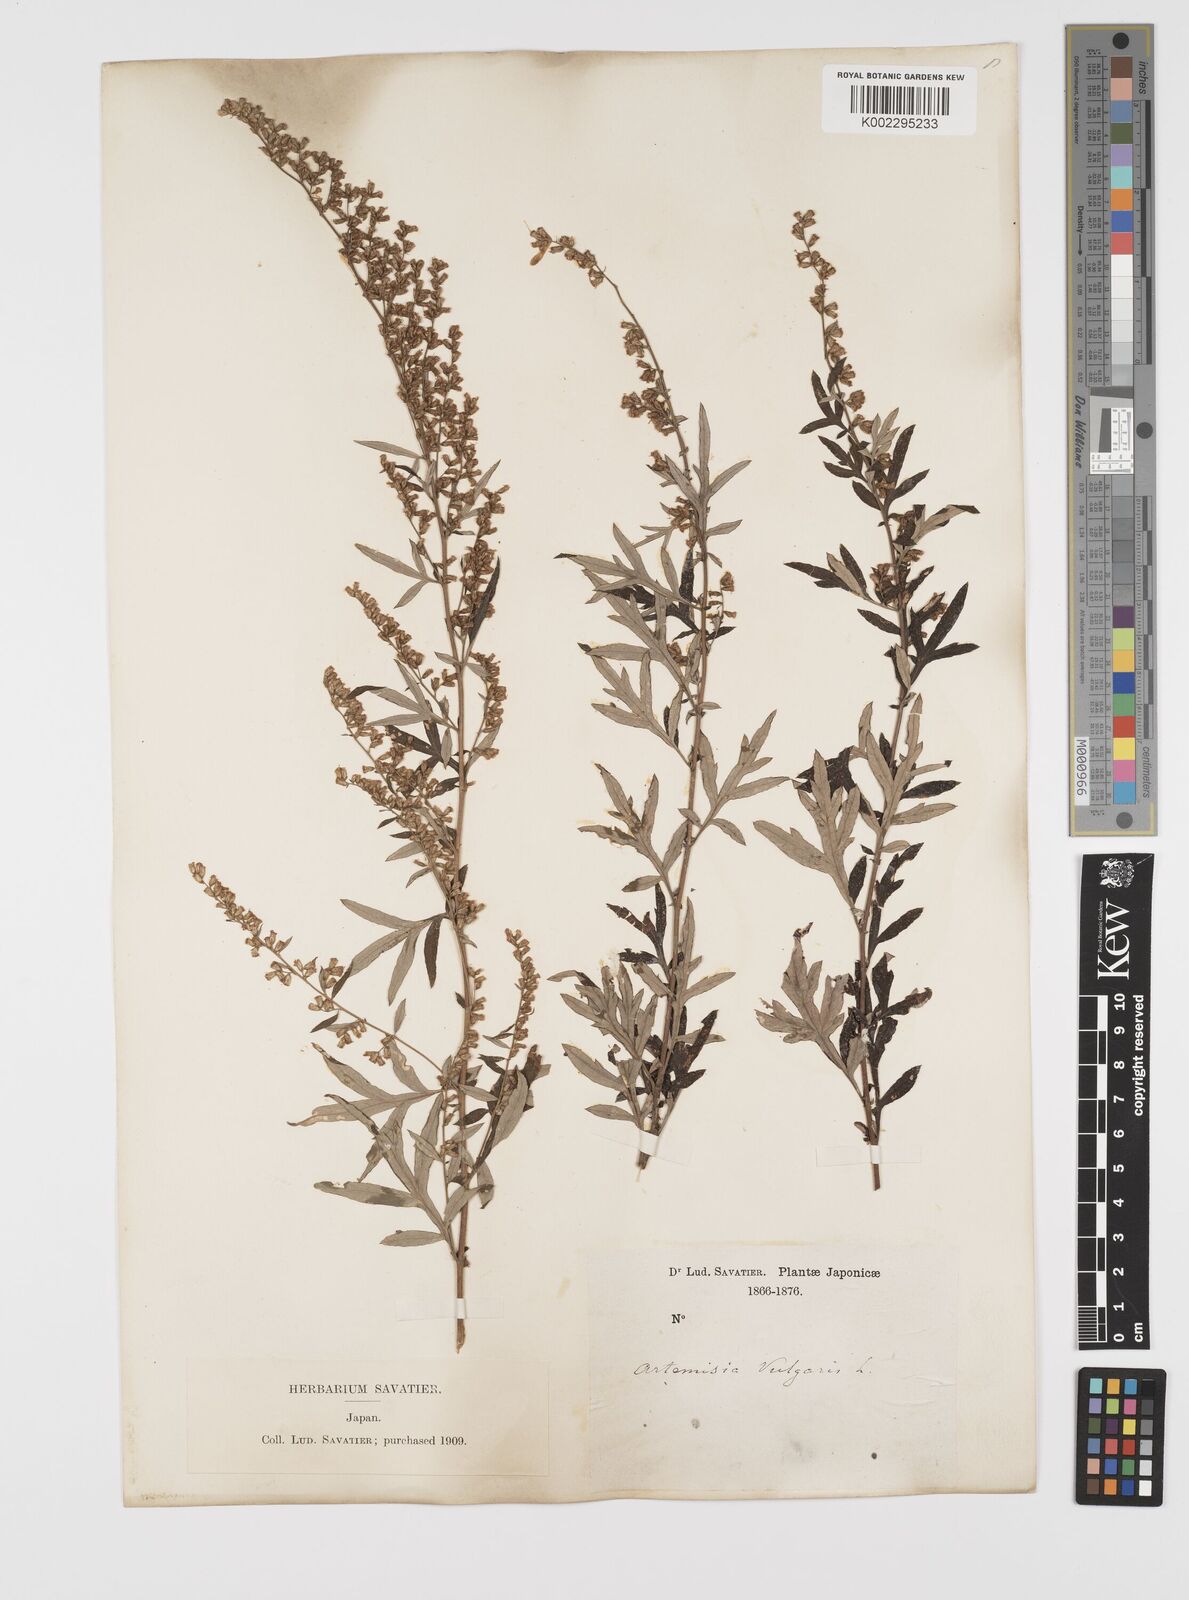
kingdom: Plantae
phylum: Tracheophyta
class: Magnoliopsida
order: Asterales
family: Asteraceae
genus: Artemisia
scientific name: Artemisia
